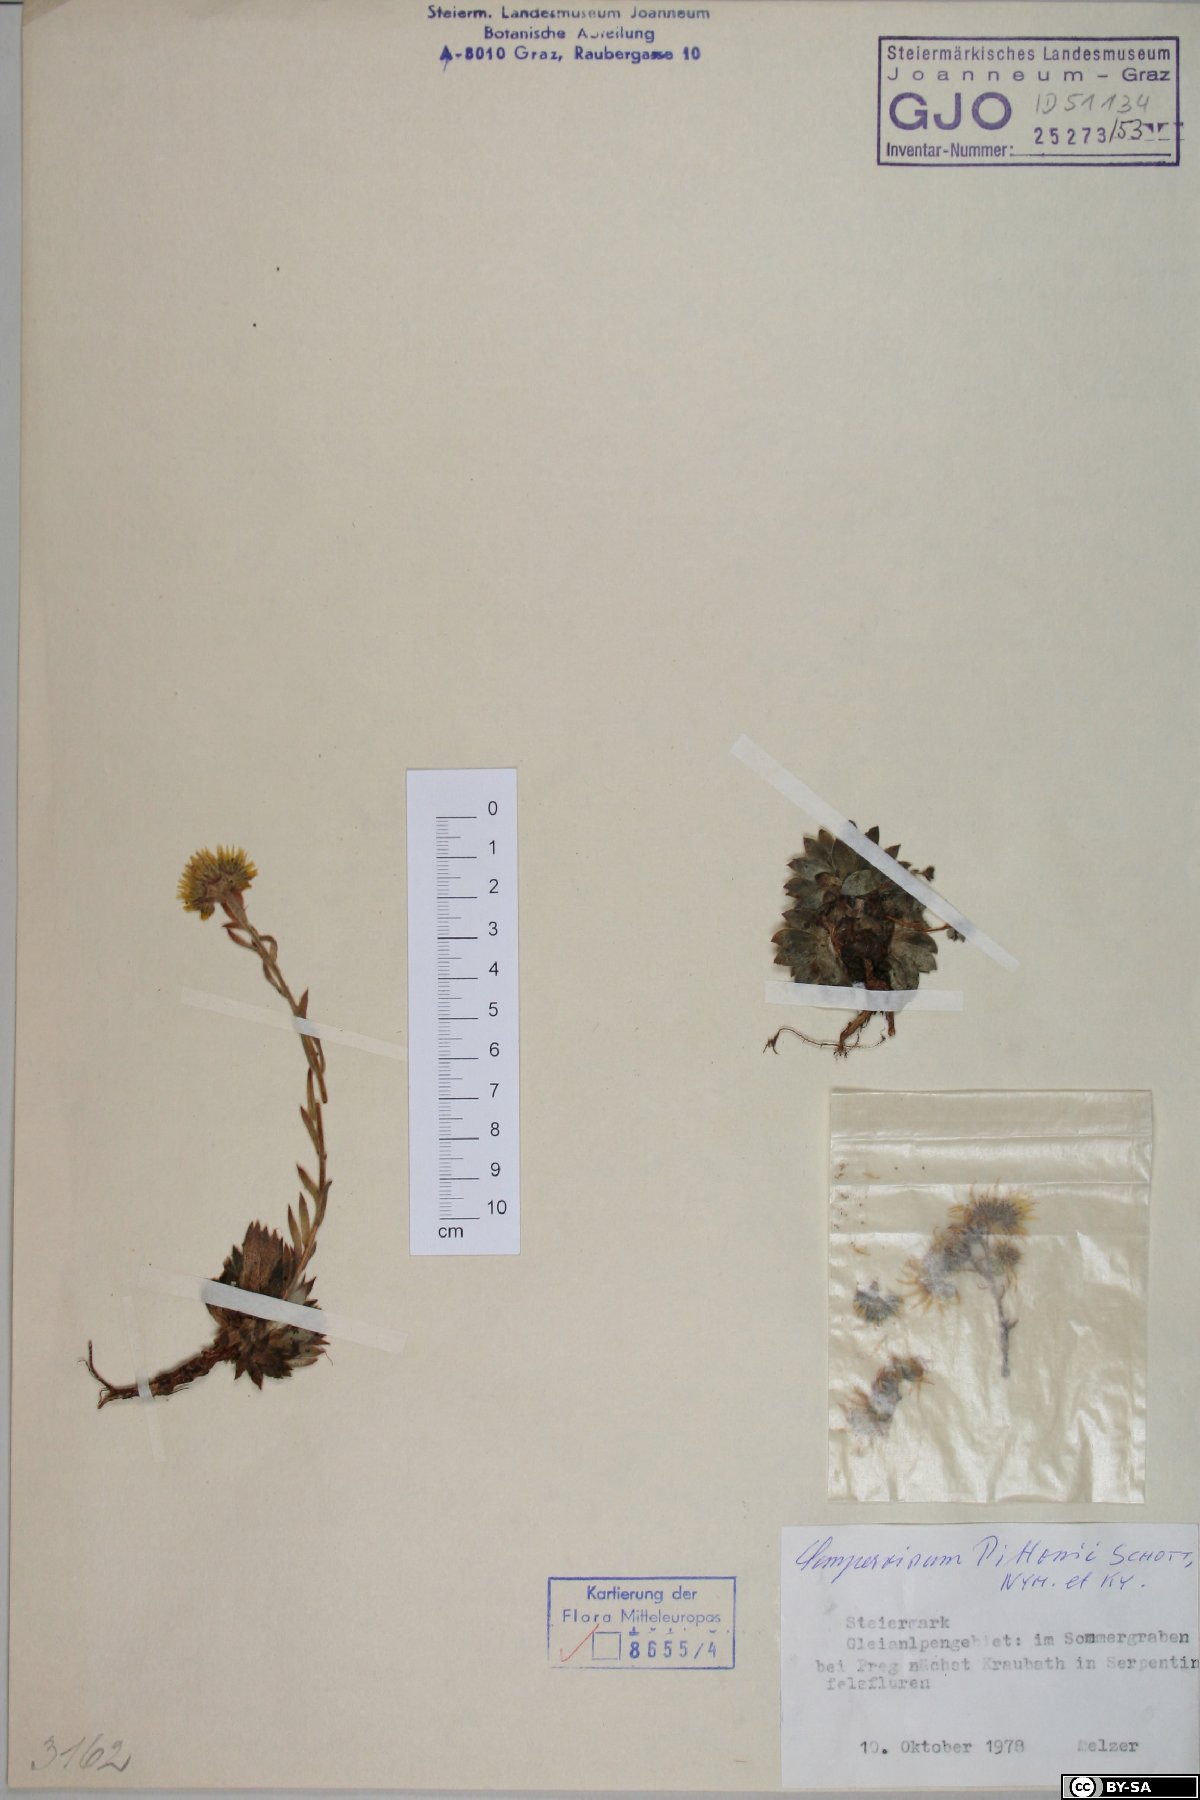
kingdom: Plantae
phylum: Tracheophyta
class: Magnoliopsida
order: Saxifragales
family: Crassulaceae
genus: Sempervivum
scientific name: Sempervivum pittonii
